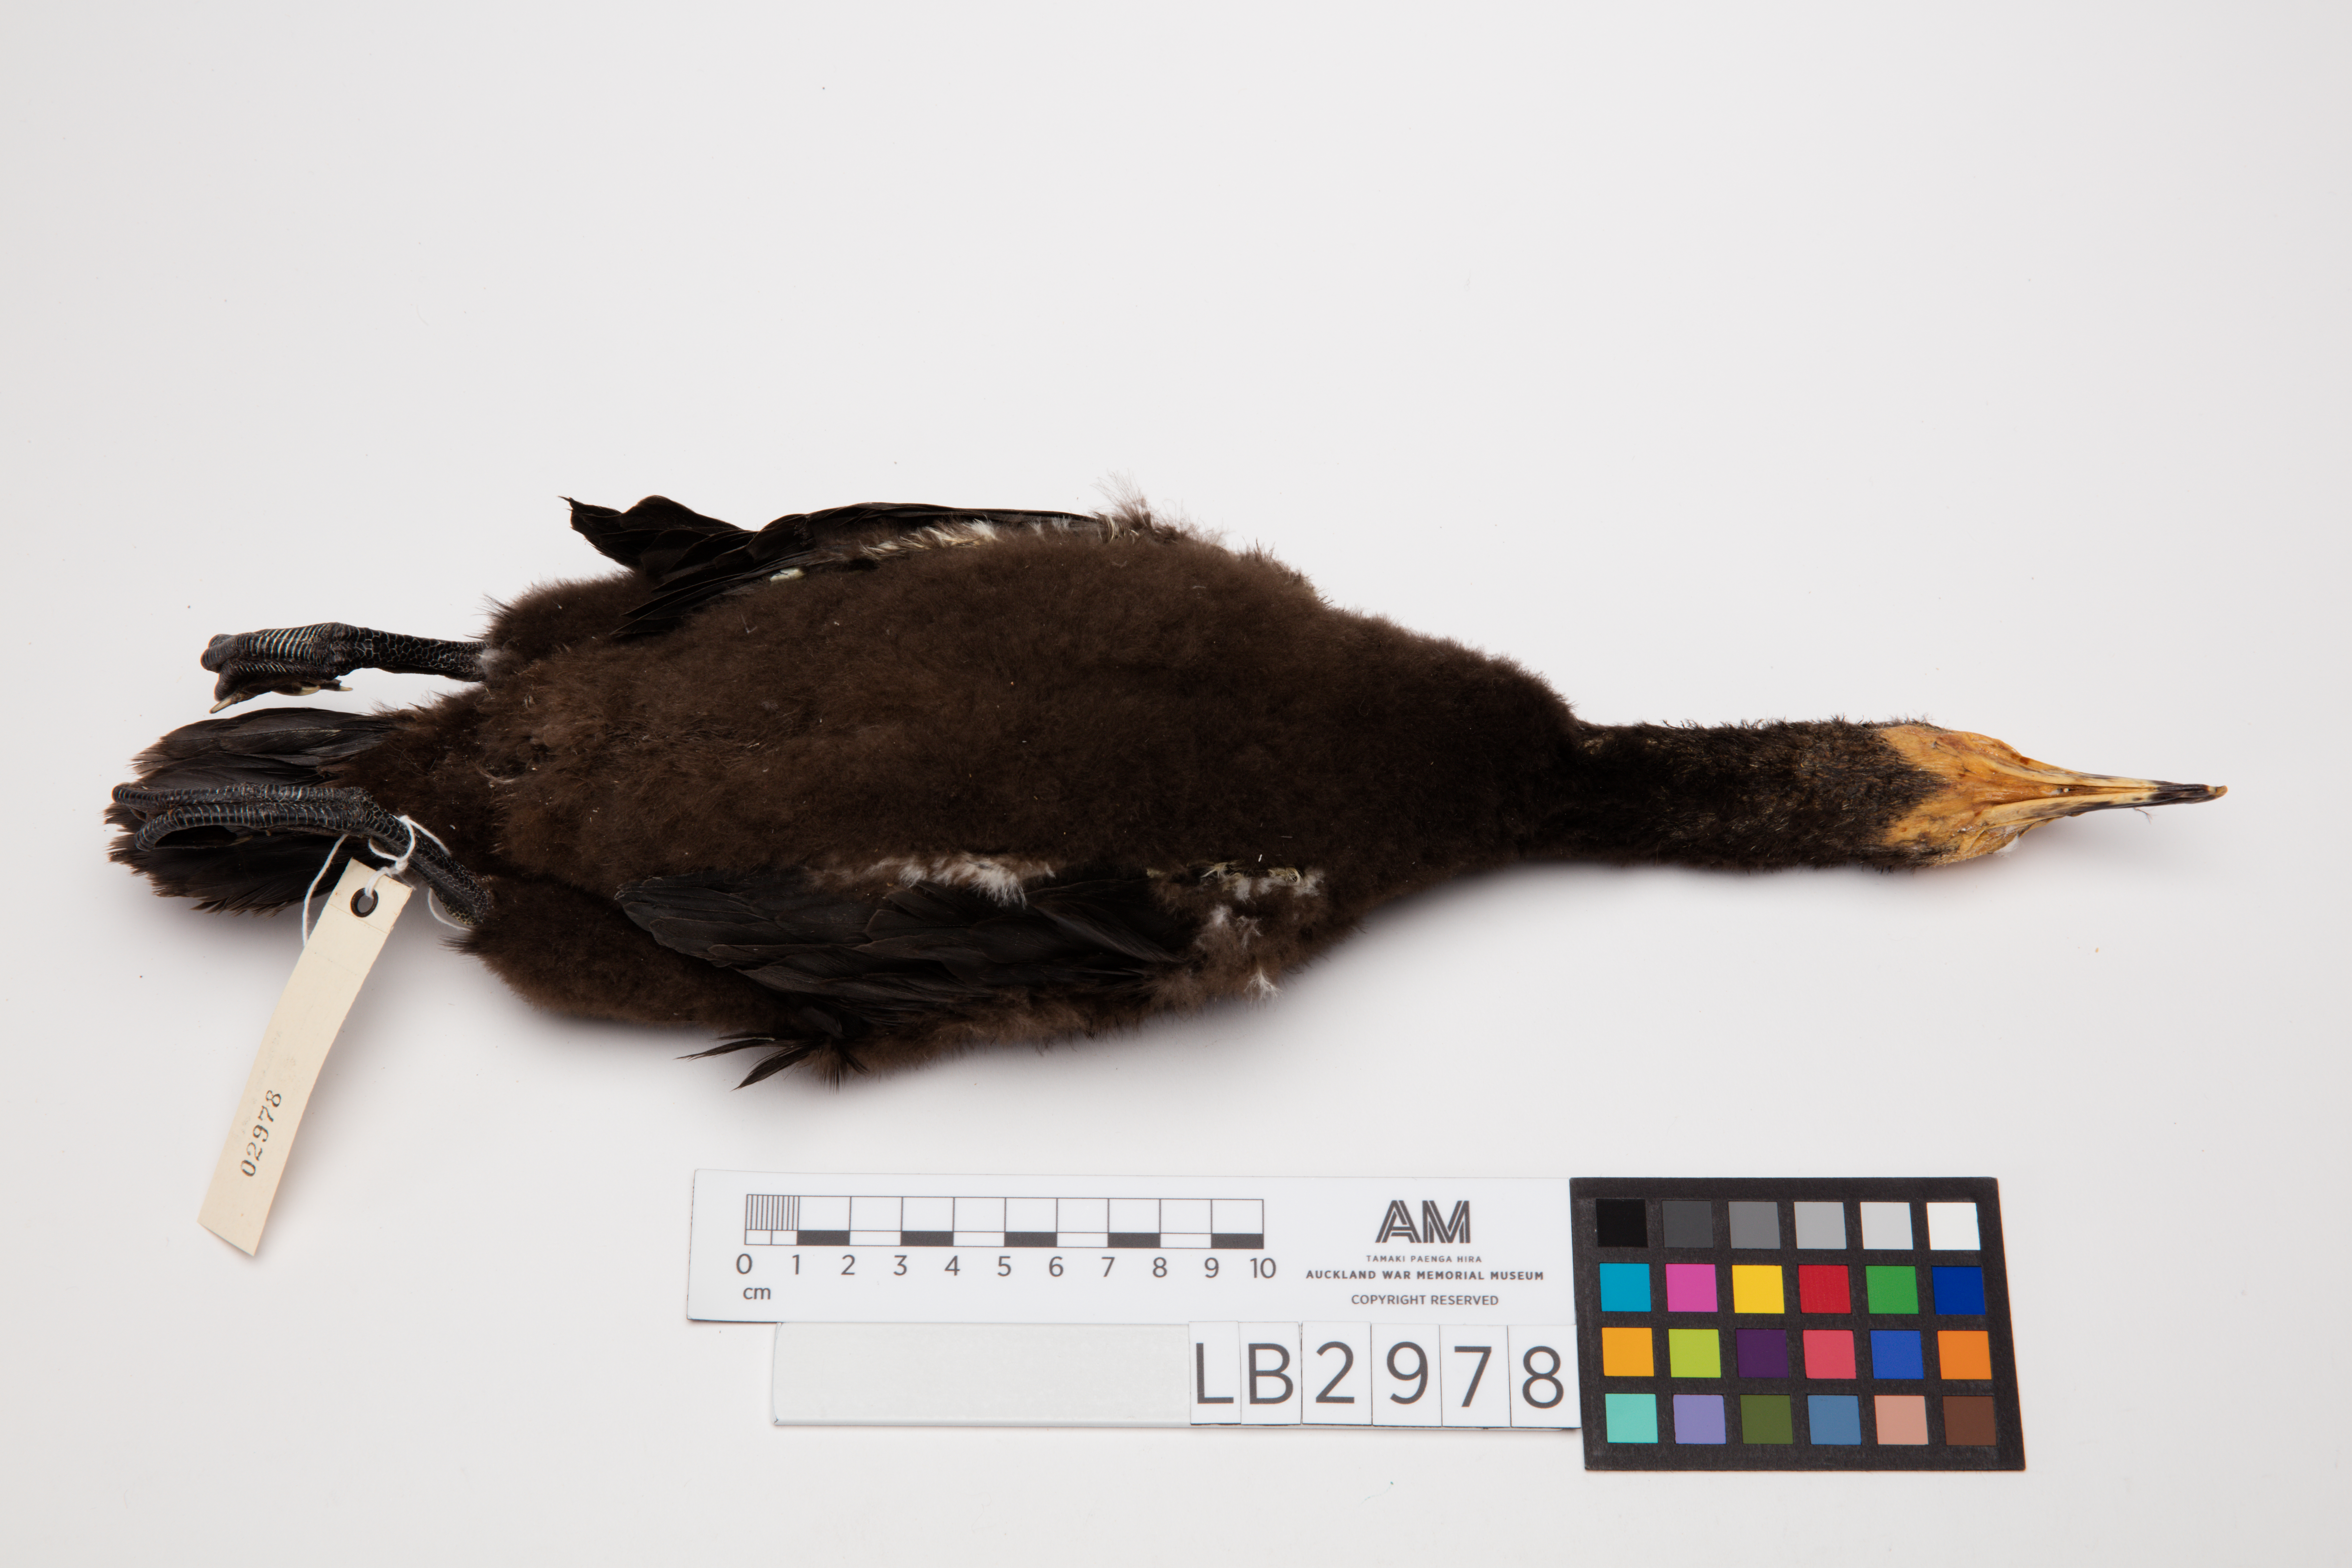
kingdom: Animalia
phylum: Chordata
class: Aves
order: Suliformes
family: Phalacrocoracidae
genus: Microcarbo
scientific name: Microcarbo melanoleucos
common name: Little pied cormorant
